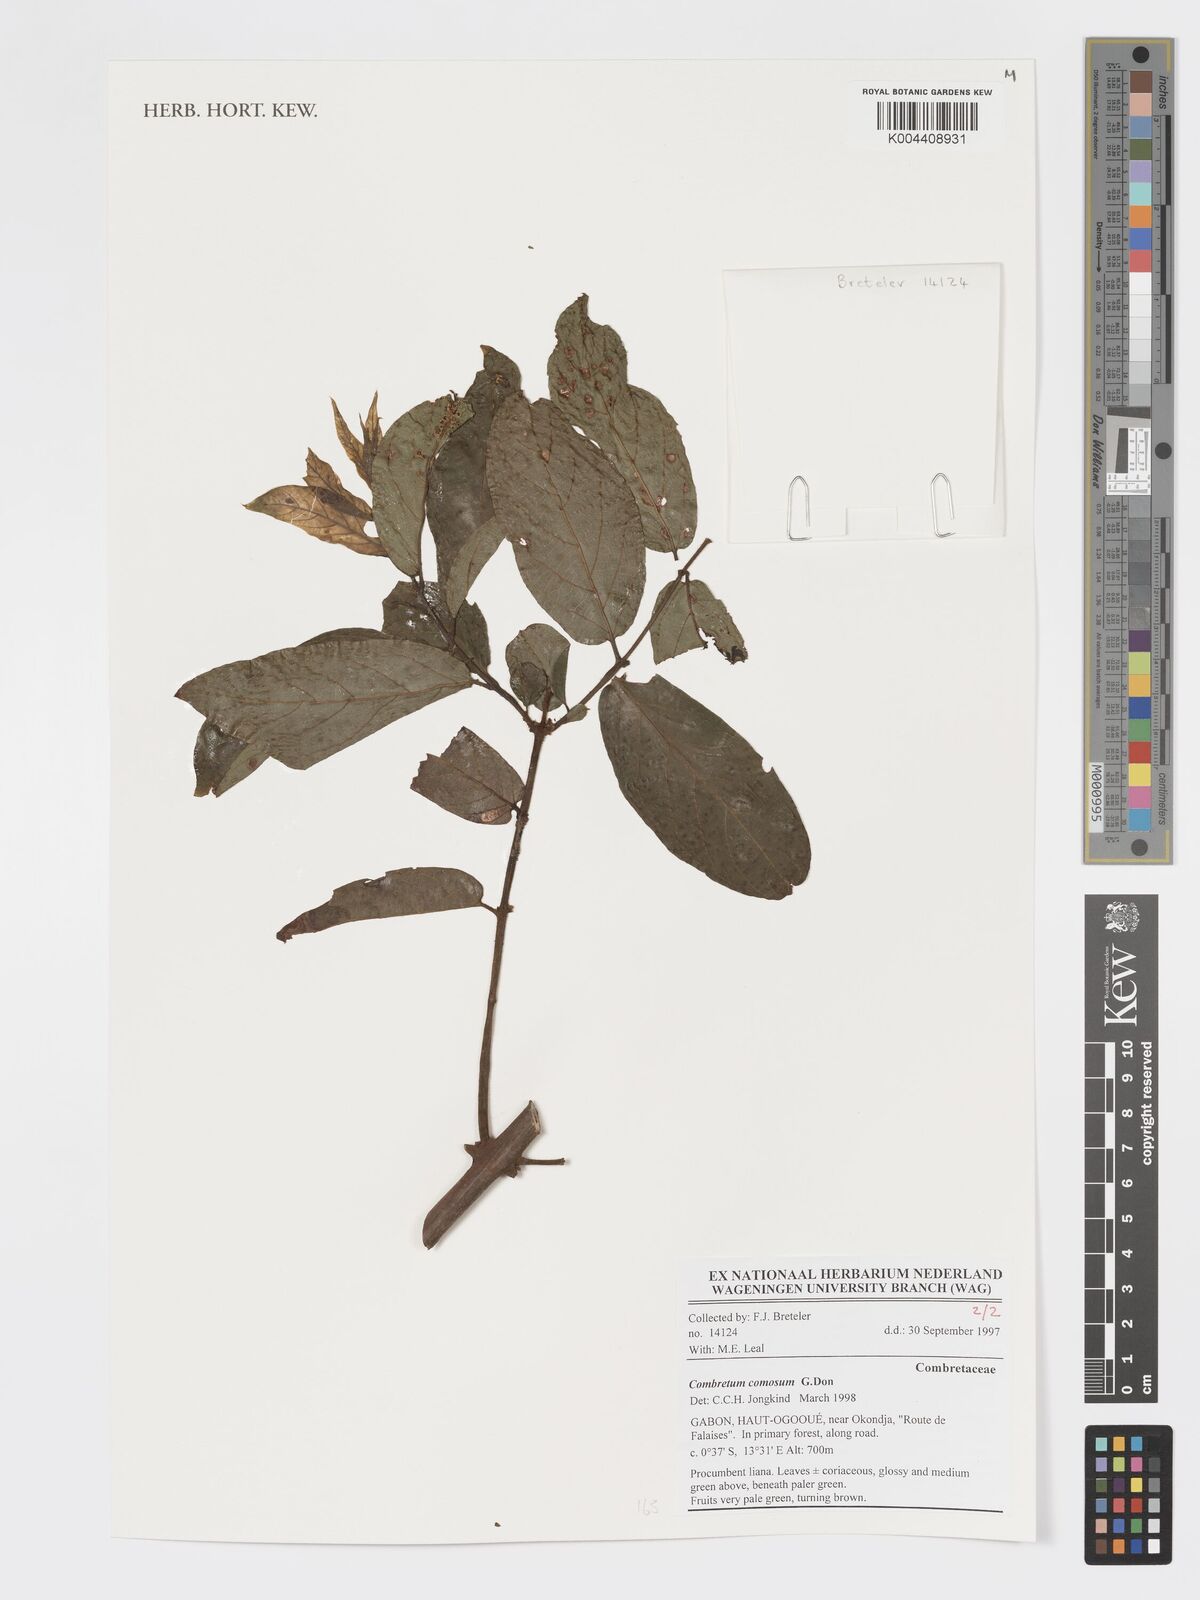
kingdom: Plantae
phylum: Tracheophyta
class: Magnoliopsida
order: Myrtales
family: Combretaceae
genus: Combretum
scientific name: Combretum comosum
